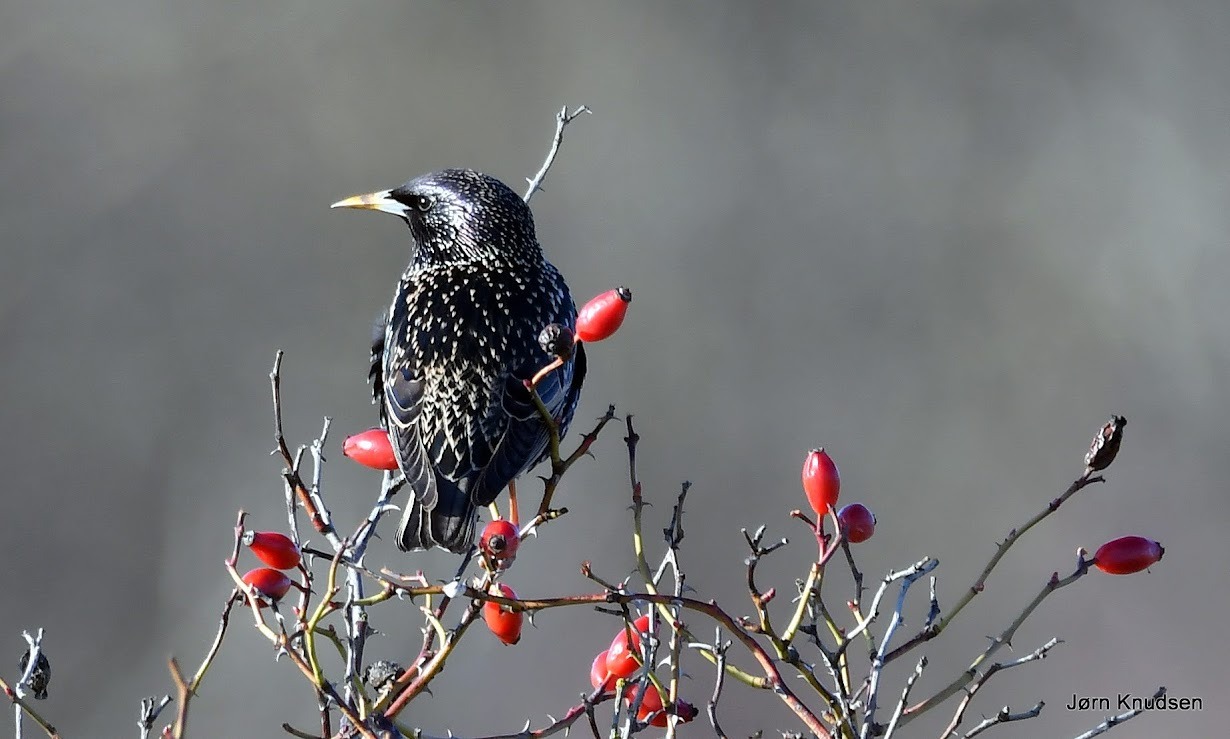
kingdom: Animalia
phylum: Chordata
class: Aves
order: Passeriformes
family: Sturnidae
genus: Sturnus
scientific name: Sturnus vulgaris
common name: Stær
